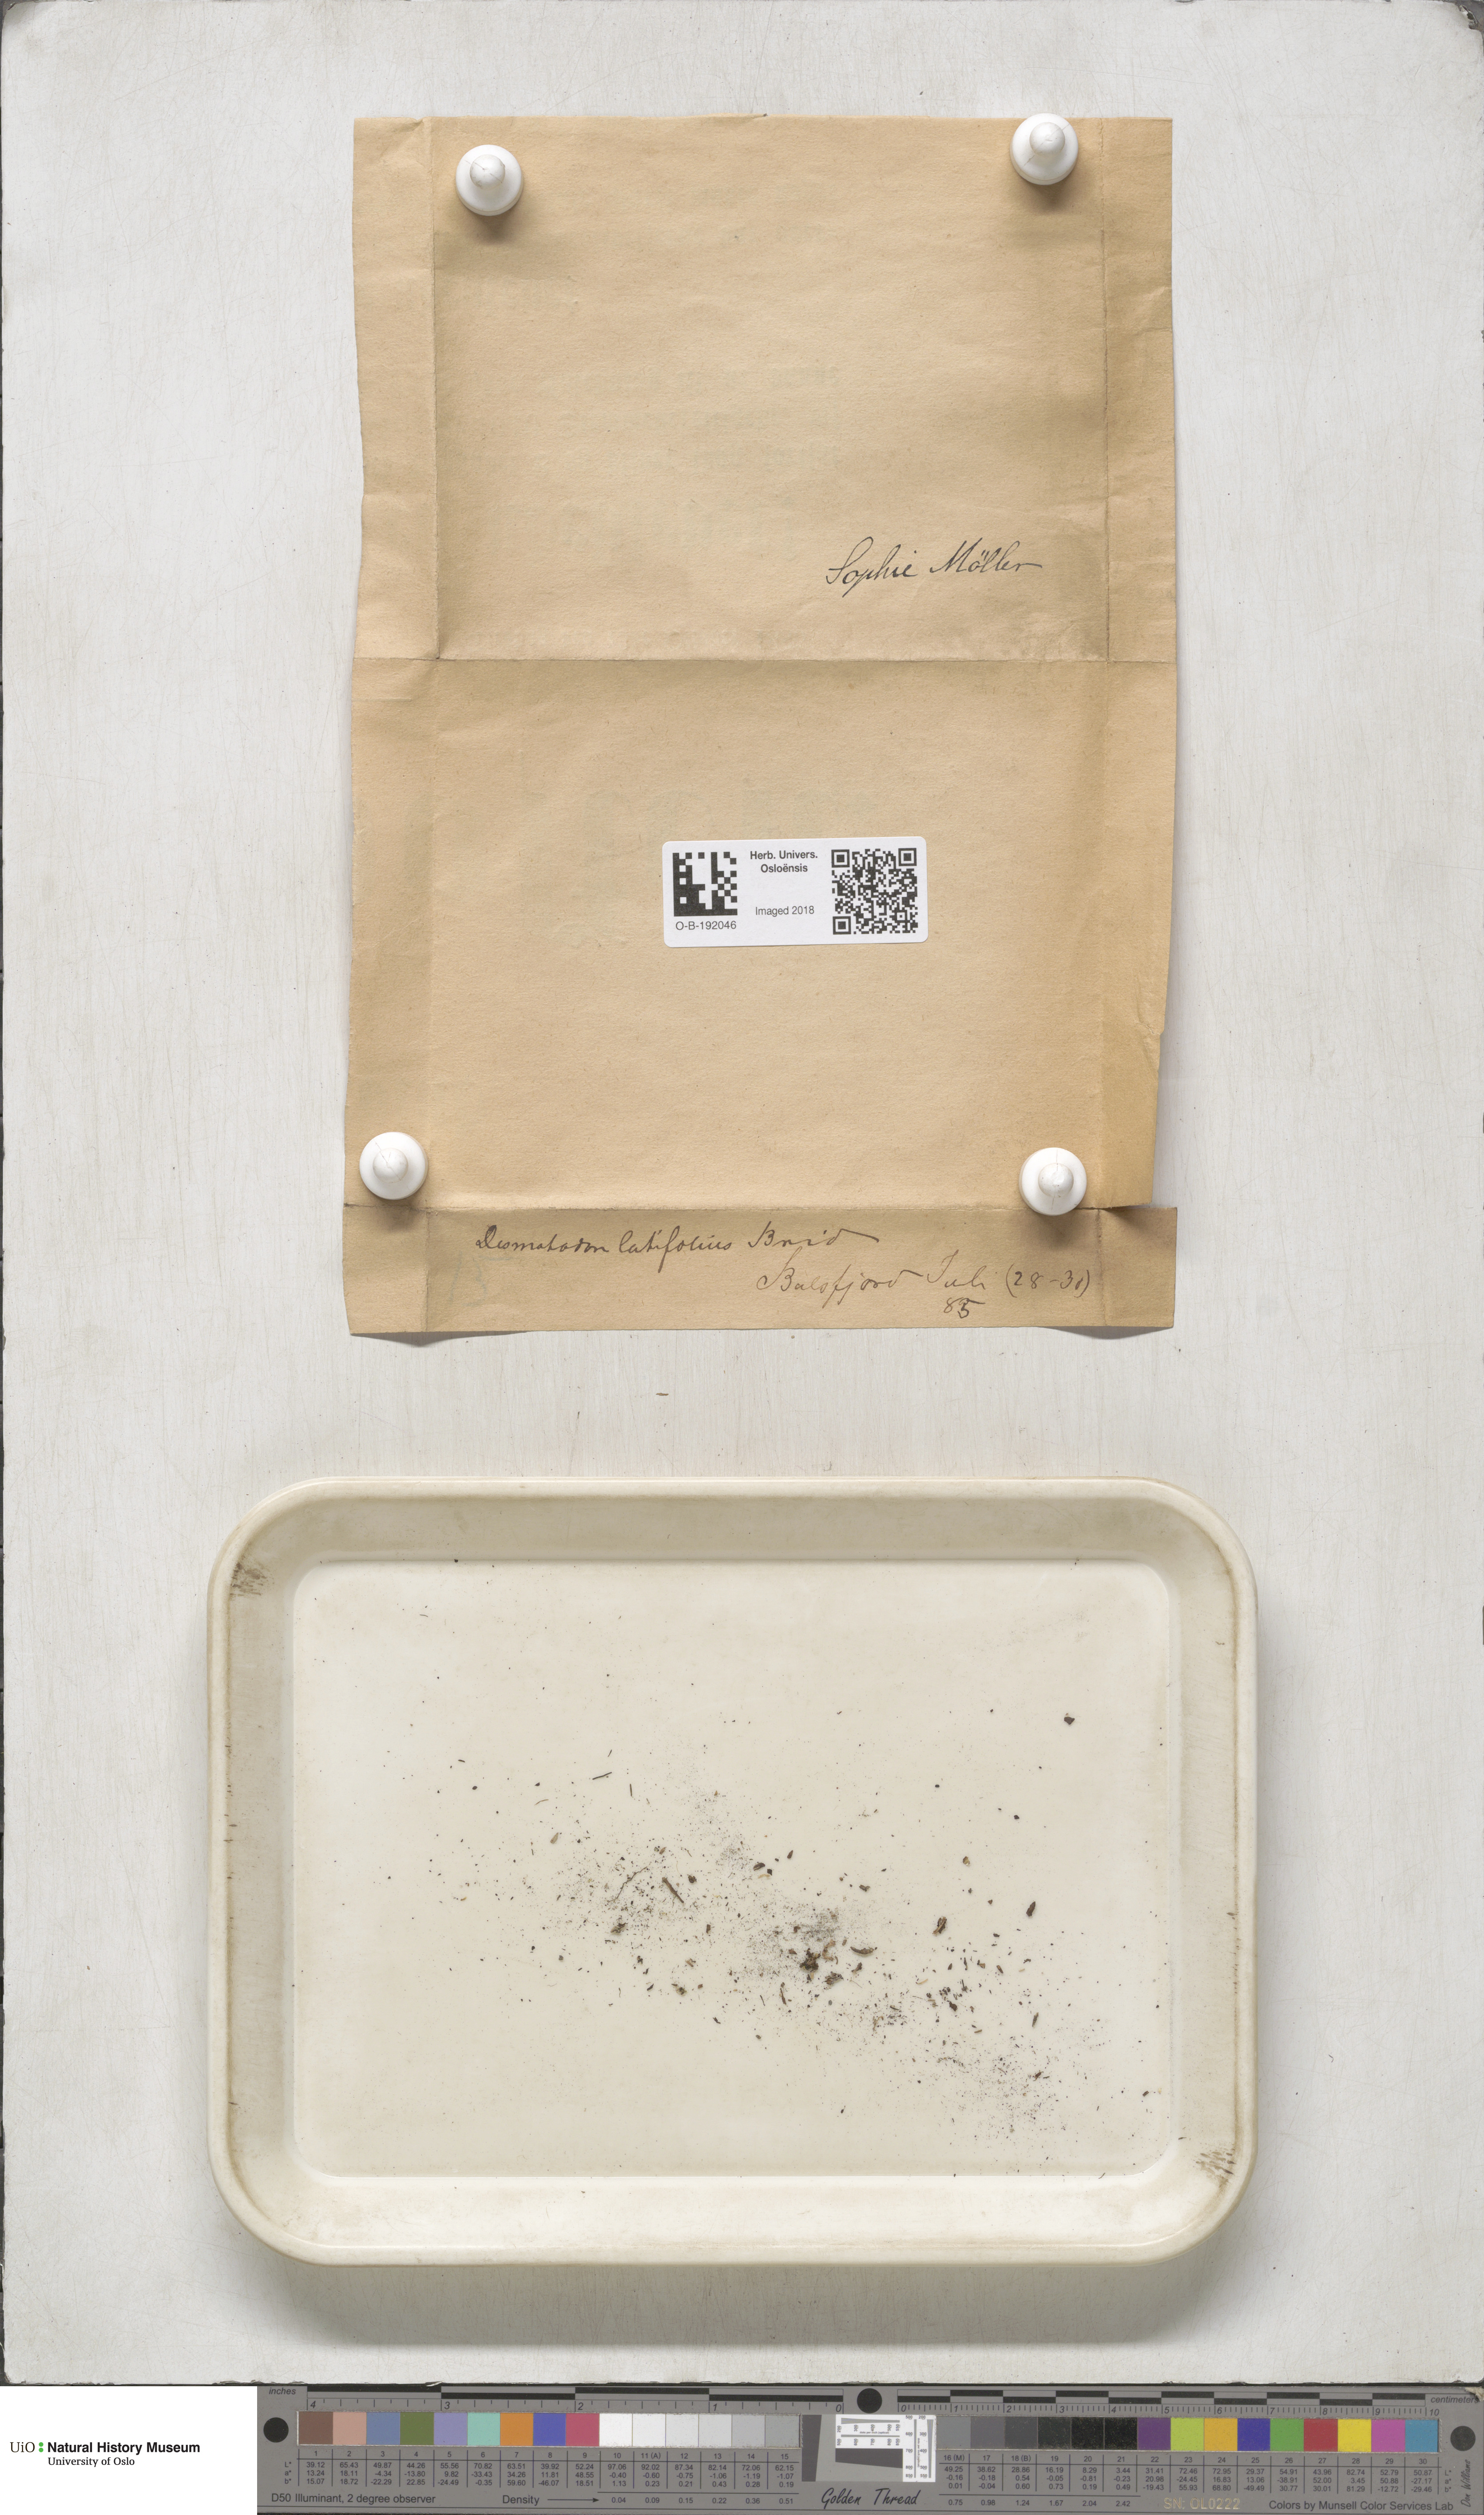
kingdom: Plantae
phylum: Bryophyta
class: Bryopsida
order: Pottiales
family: Pottiaceae
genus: Tortula
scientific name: Tortula hoppeana
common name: Hoppe's screw moss
